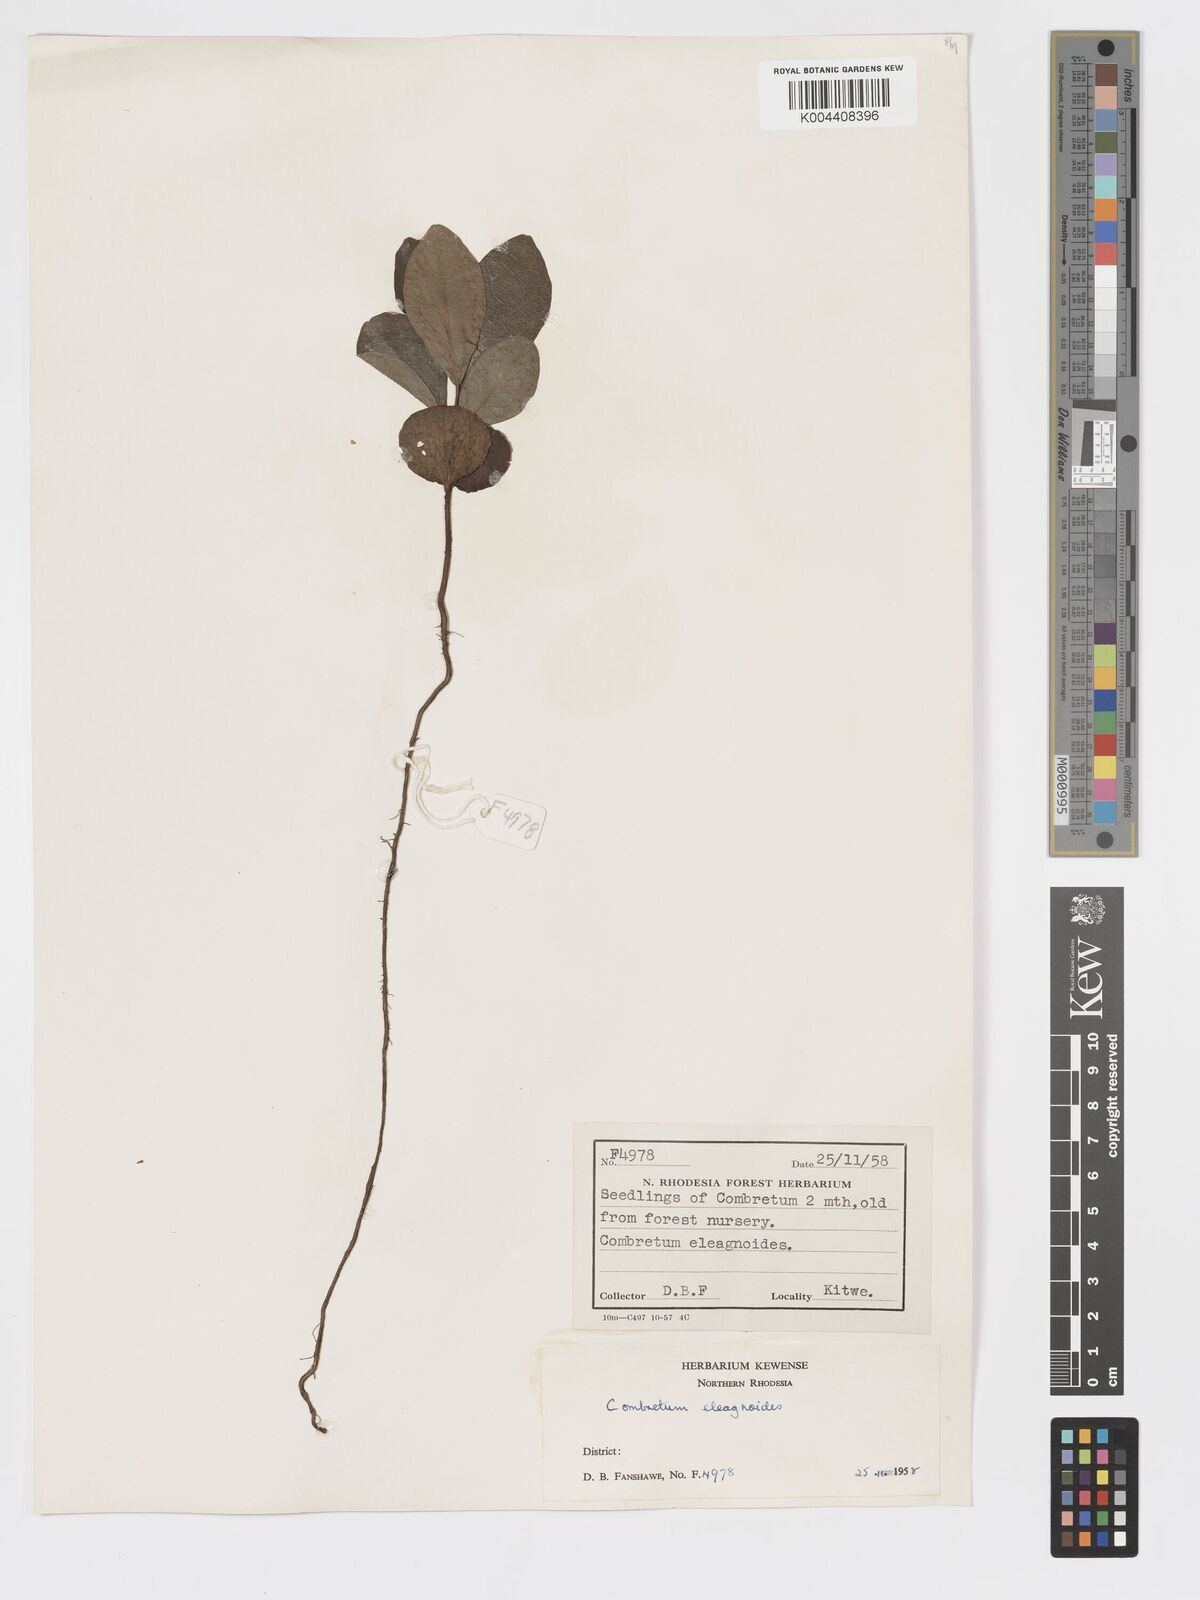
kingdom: Plantae
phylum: Tracheophyta
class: Magnoliopsida
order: Myrtales
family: Combretaceae
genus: Combretum
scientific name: Combretum elaeagnoides
